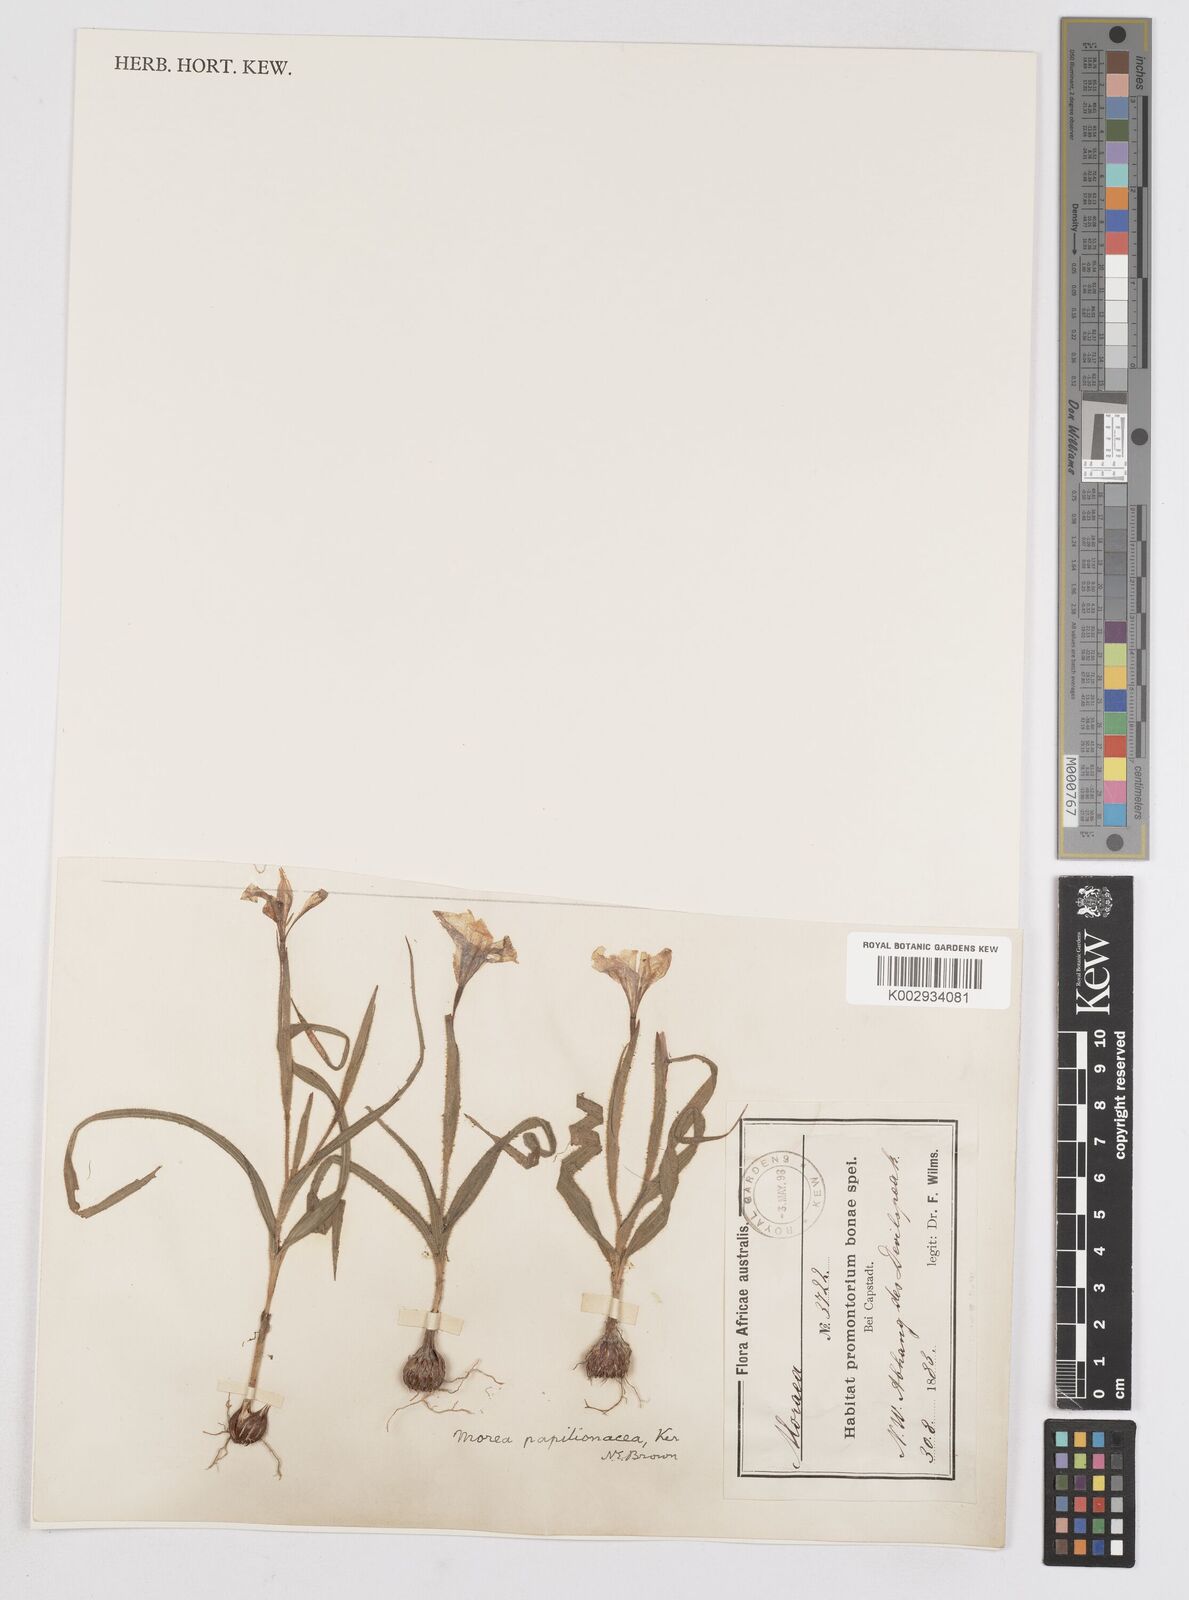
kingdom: Plantae
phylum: Tracheophyta
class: Liliopsida
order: Asparagales
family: Iridaceae
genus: Moraea
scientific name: Moraea papilionacea
